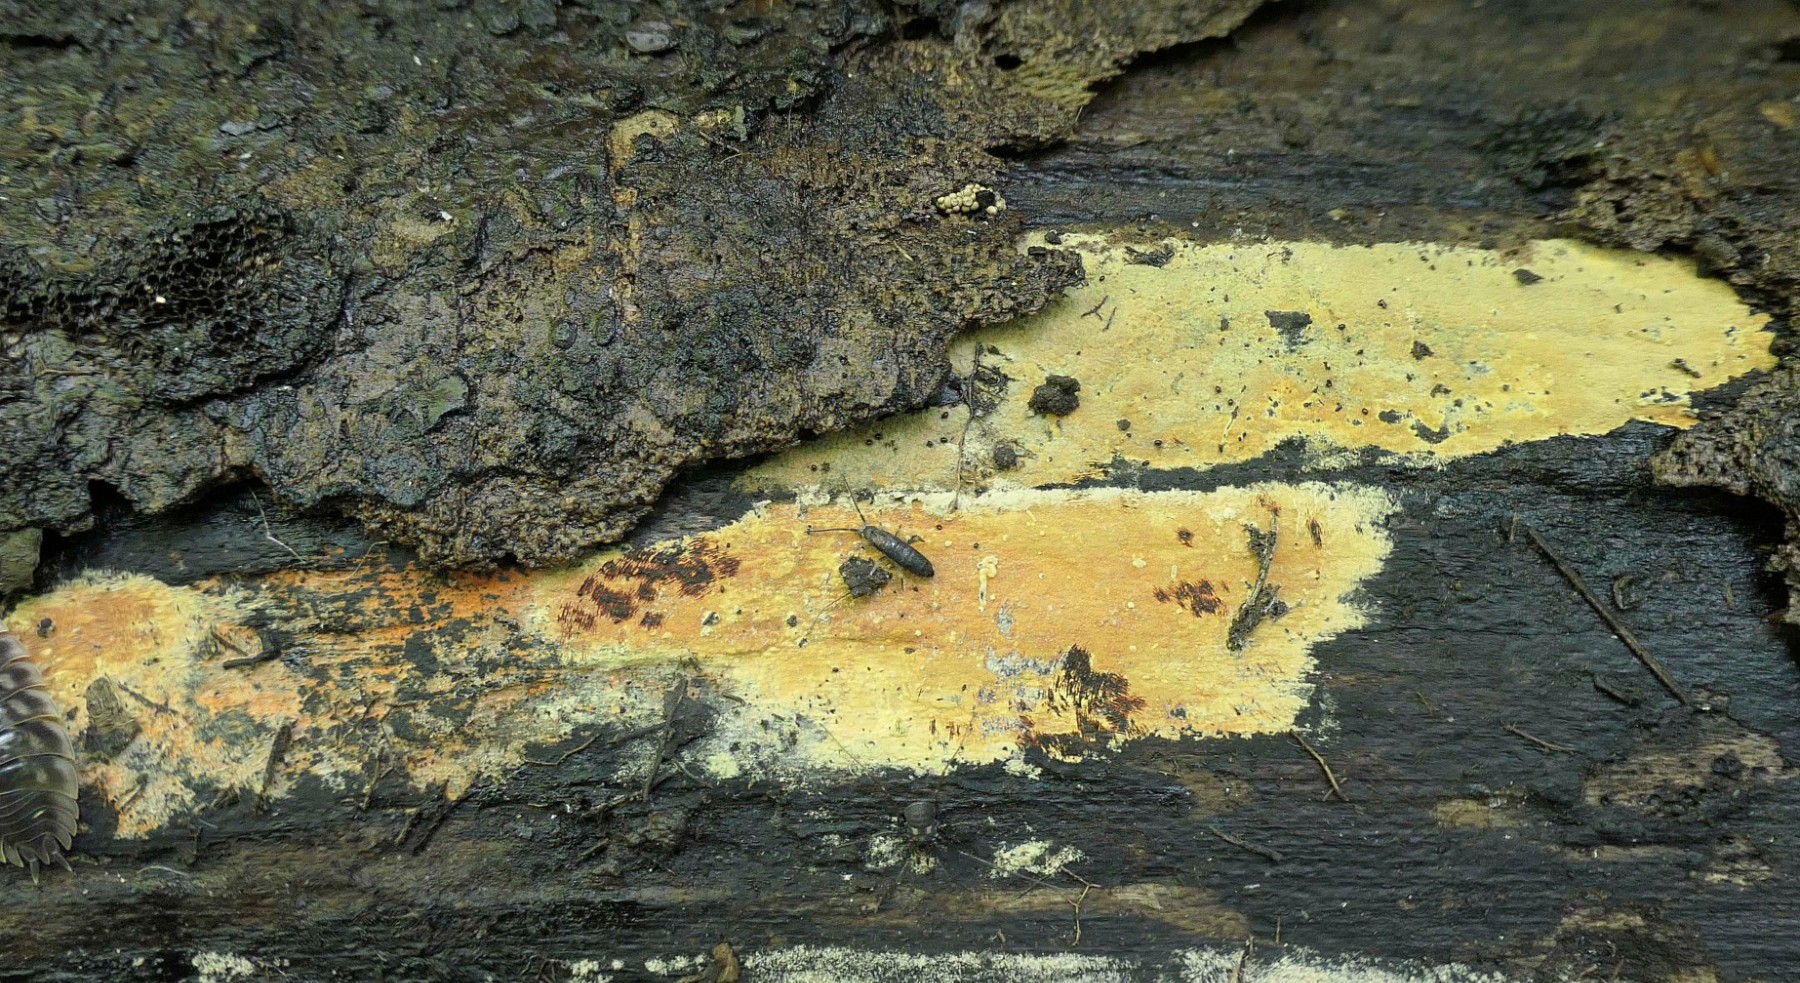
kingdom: Fungi
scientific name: Fungi
